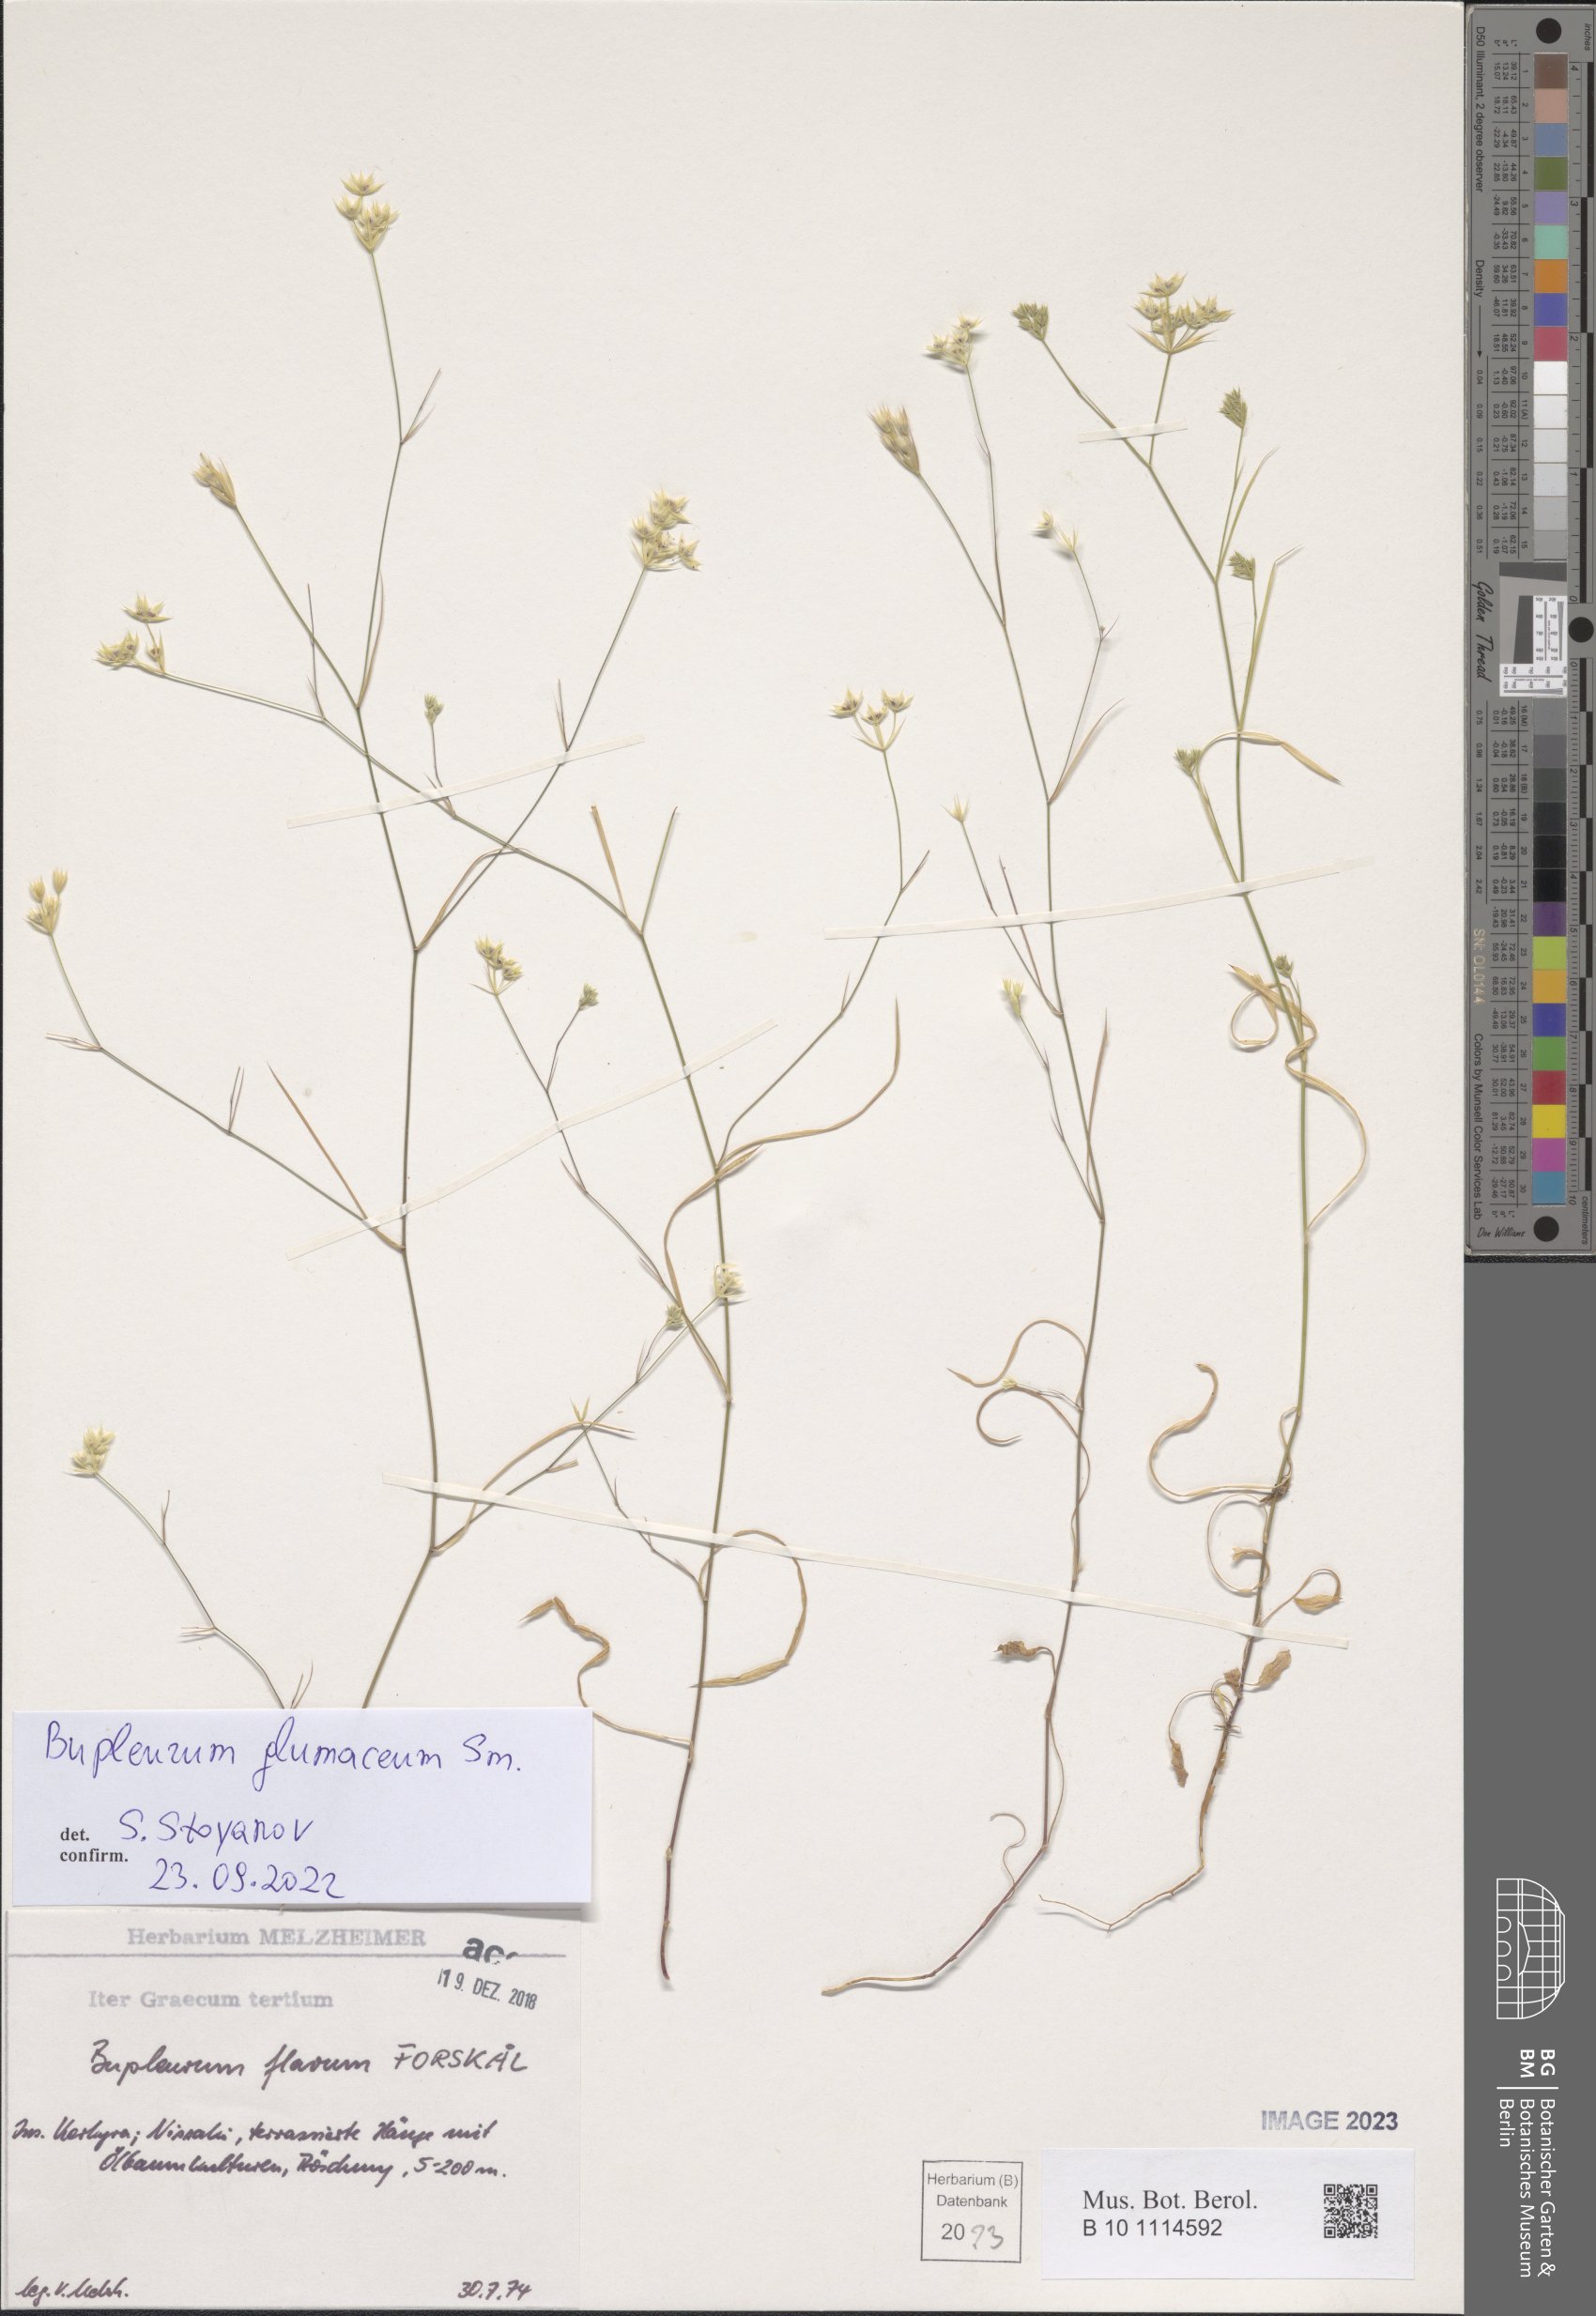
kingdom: Plantae
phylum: Tracheophyta
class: Magnoliopsida
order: Apiales
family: Apiaceae
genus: Bupleurum
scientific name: Bupleurum glumaceum
